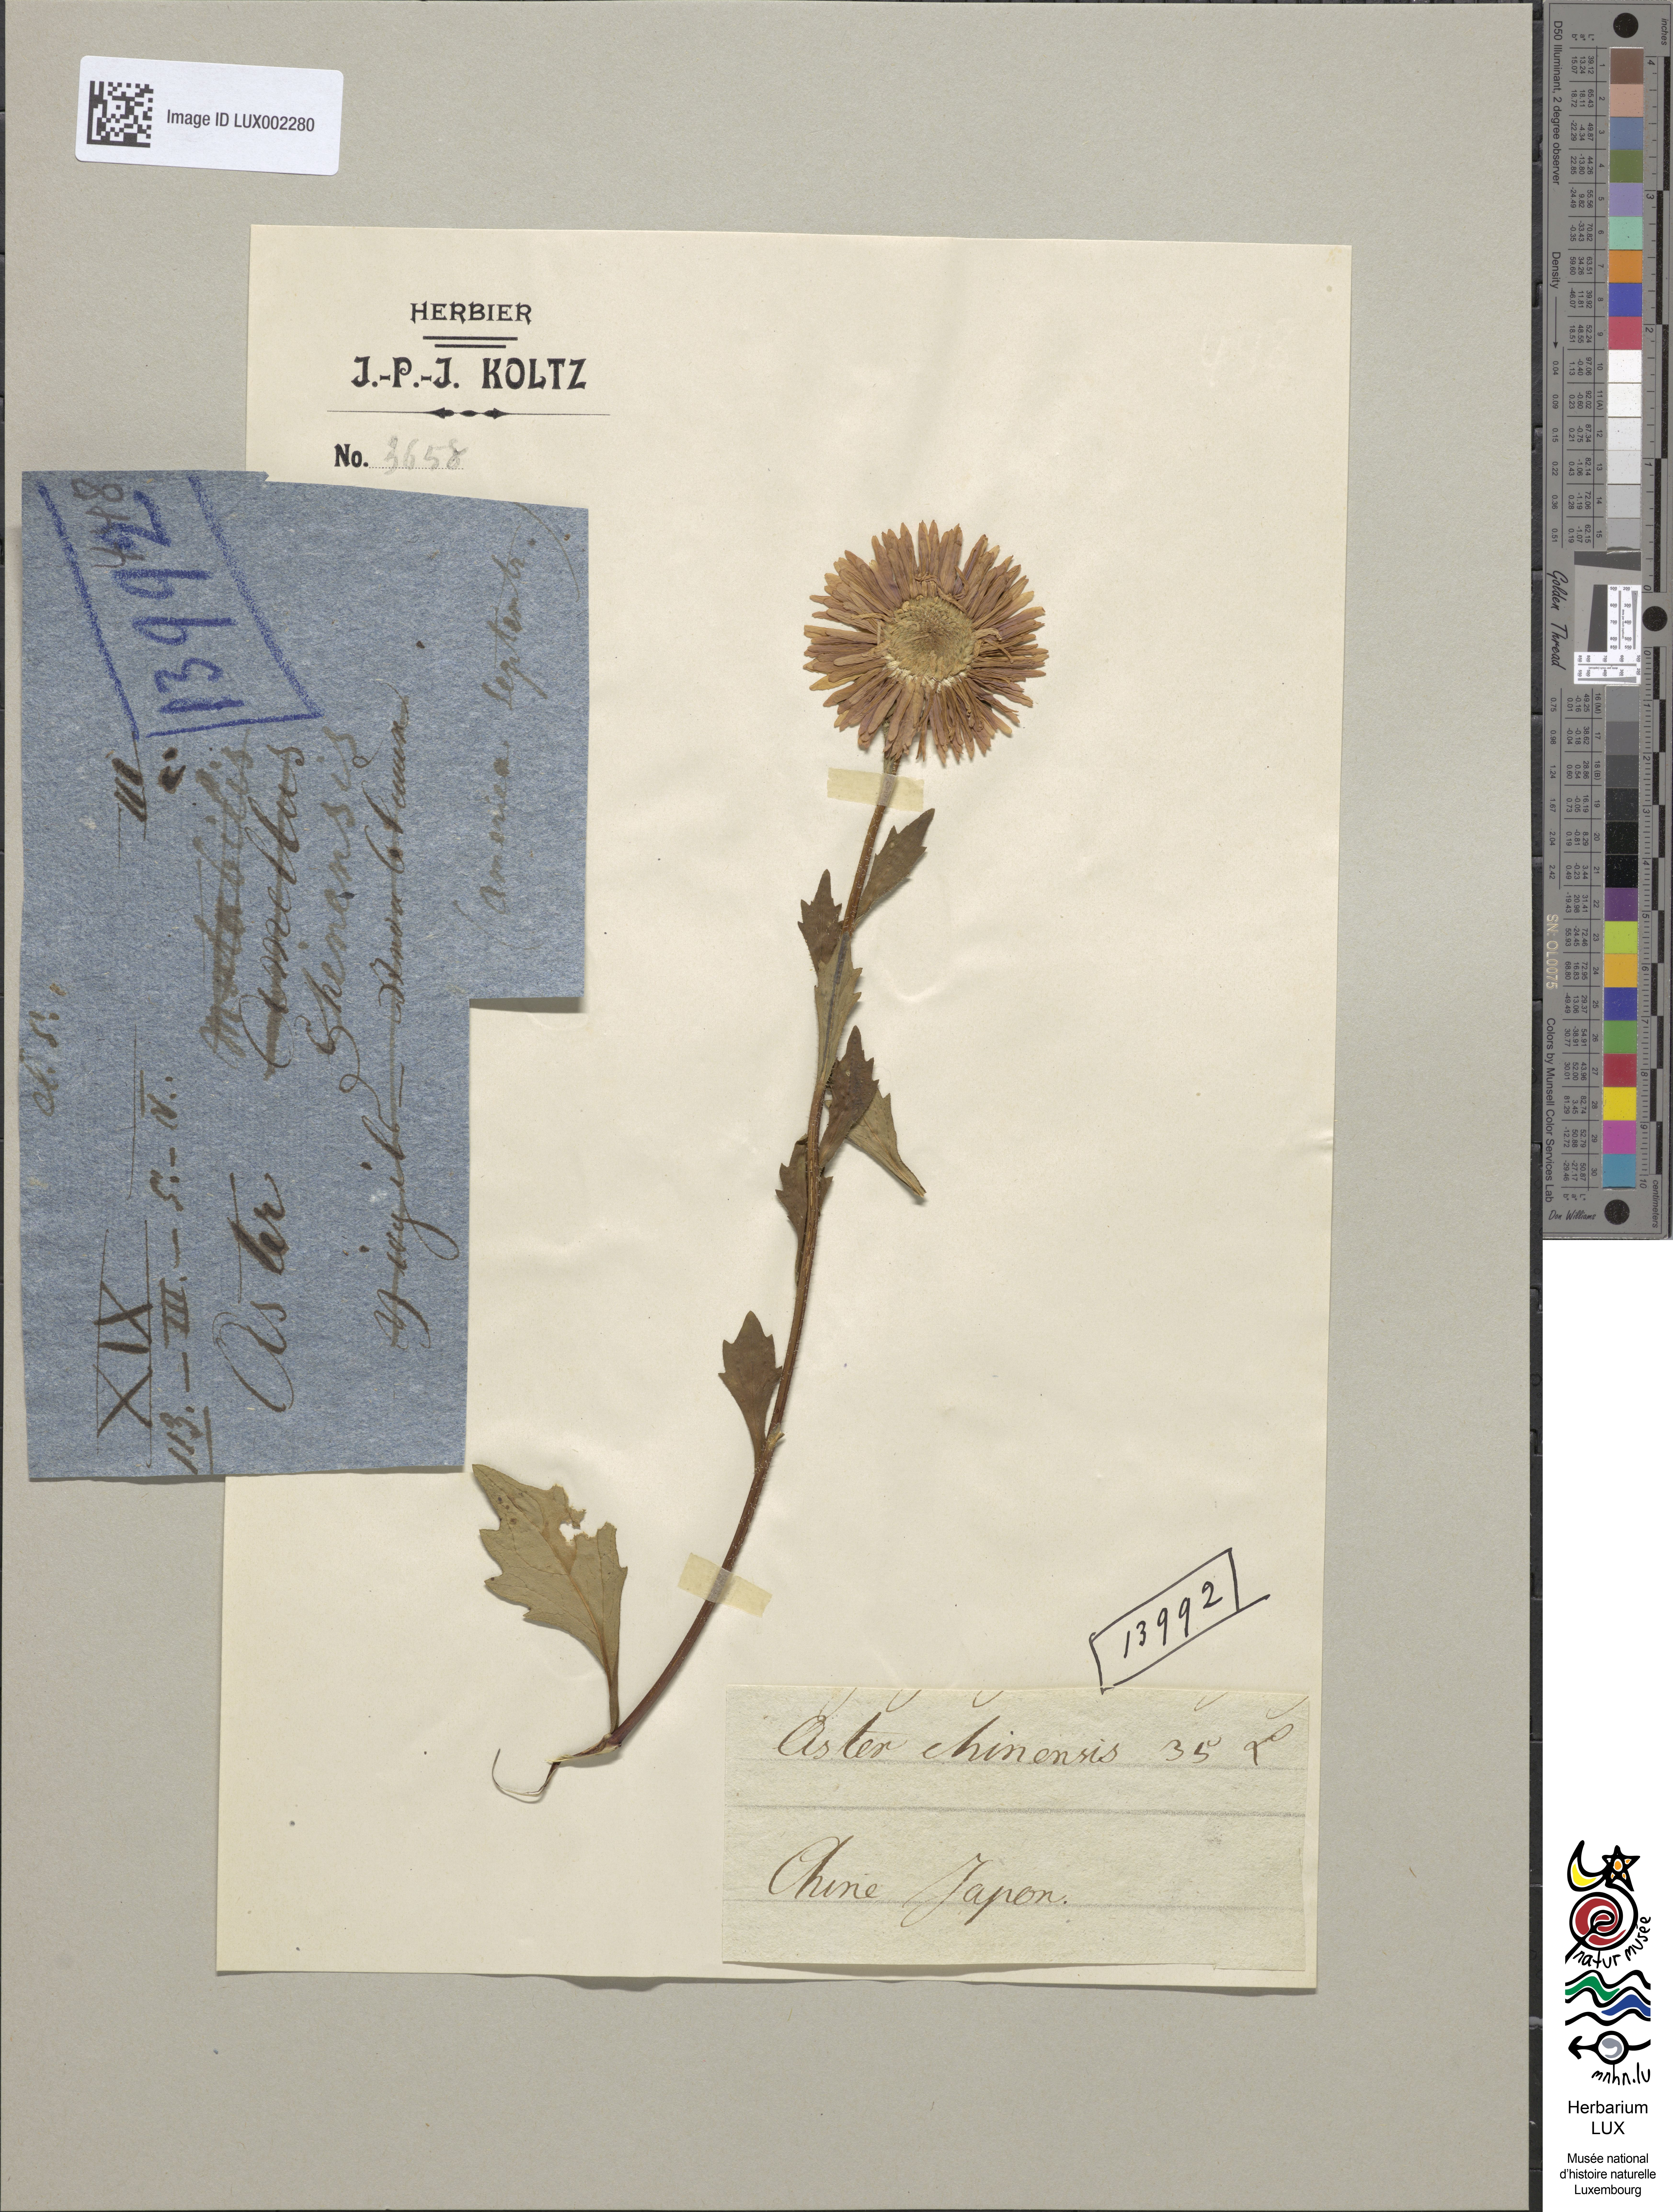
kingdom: Plantae
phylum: Tracheophyta
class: Magnoliopsida
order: Asterales
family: Asteraceae
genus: Callistephus
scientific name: Callistephus chinensis
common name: China aster
